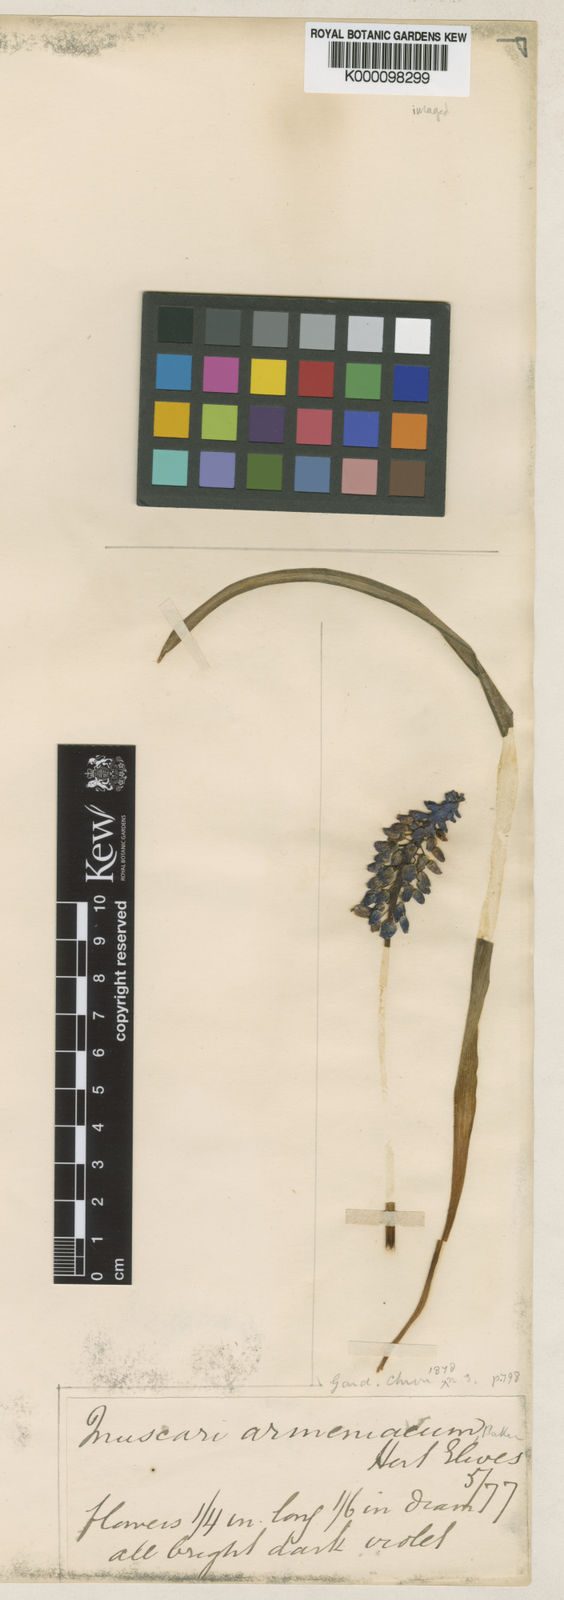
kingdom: Plantae
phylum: Tracheophyta
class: Liliopsida
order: Asparagales
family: Asparagaceae
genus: Muscari
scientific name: Muscari
